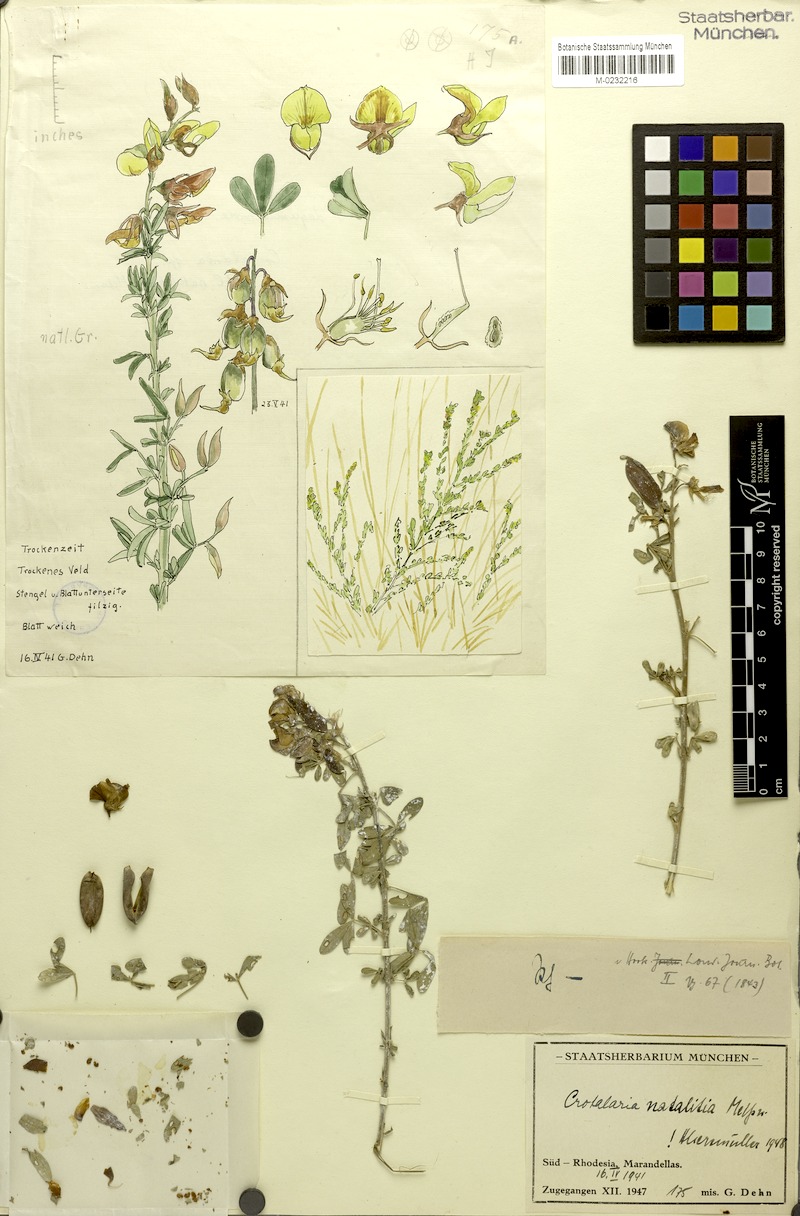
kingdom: Plantae
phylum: Tracheophyta
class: Magnoliopsida
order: Fabales
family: Fabaceae
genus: Crotalaria
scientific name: Crotalaria natalitia
